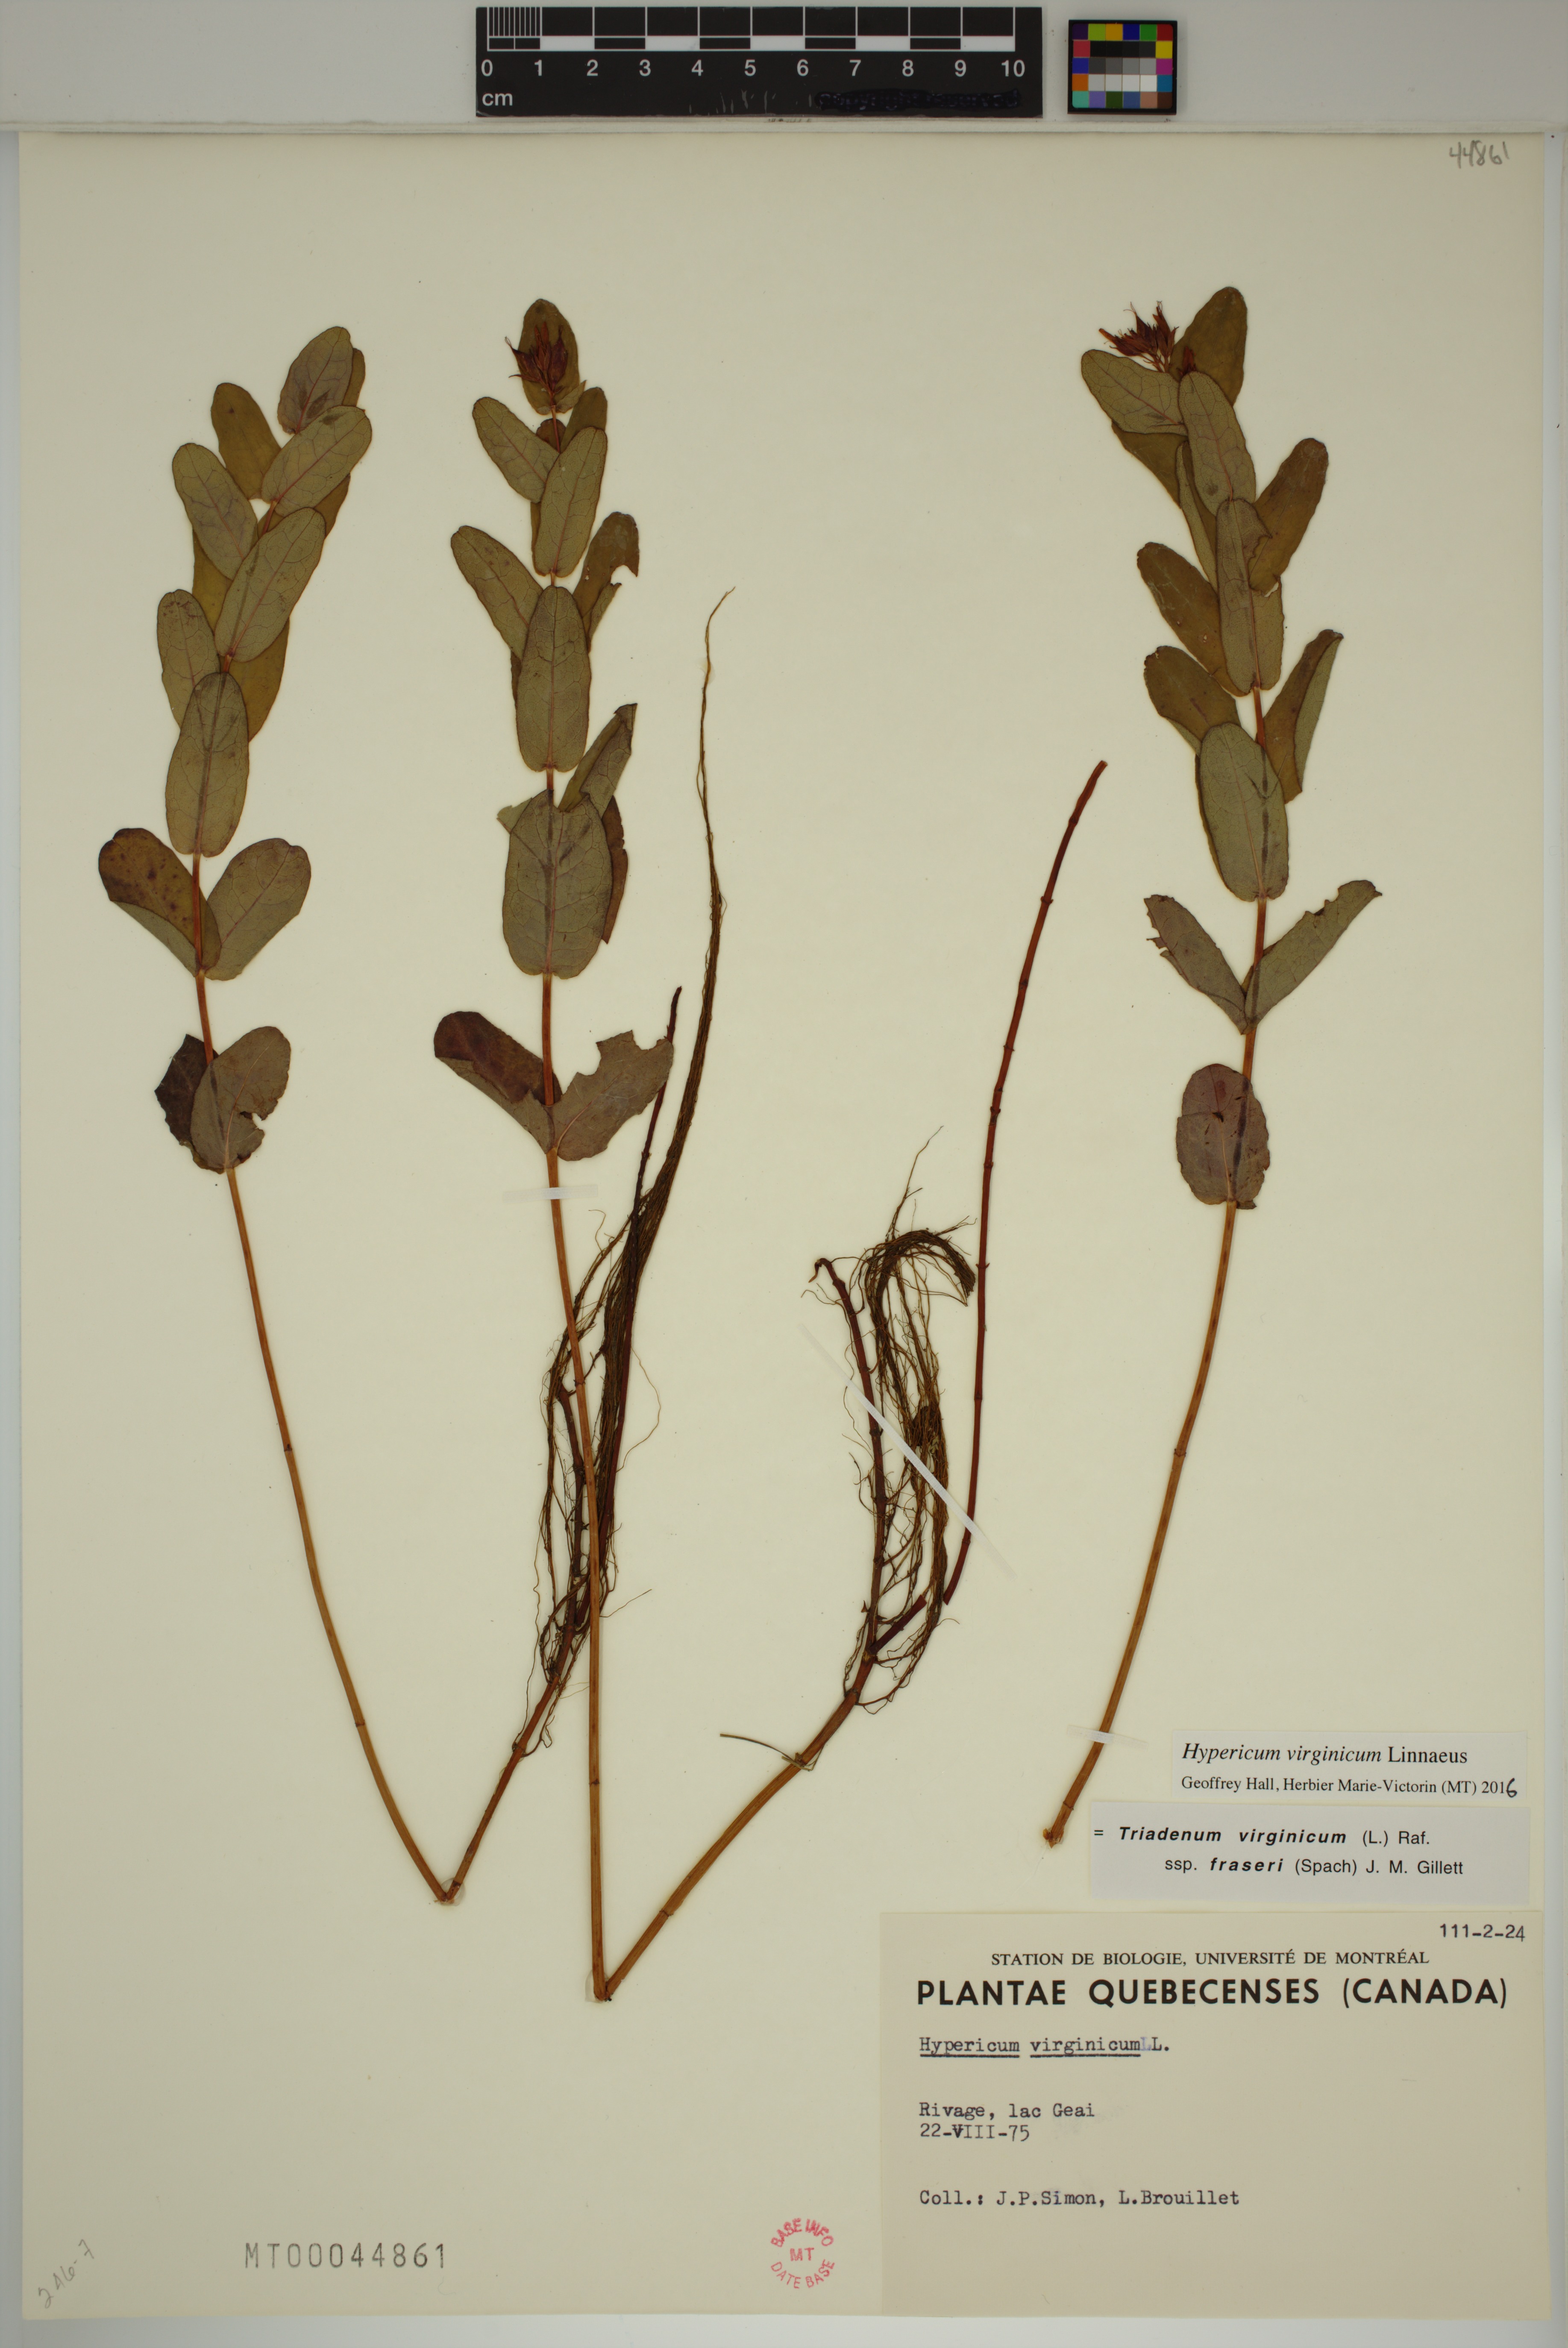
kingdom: Plantae
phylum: Tracheophyta
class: Magnoliopsida
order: Malpighiales
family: Hypericaceae
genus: Triadenum
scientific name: Triadenum virginicum
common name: Marsh st. john's-wort
